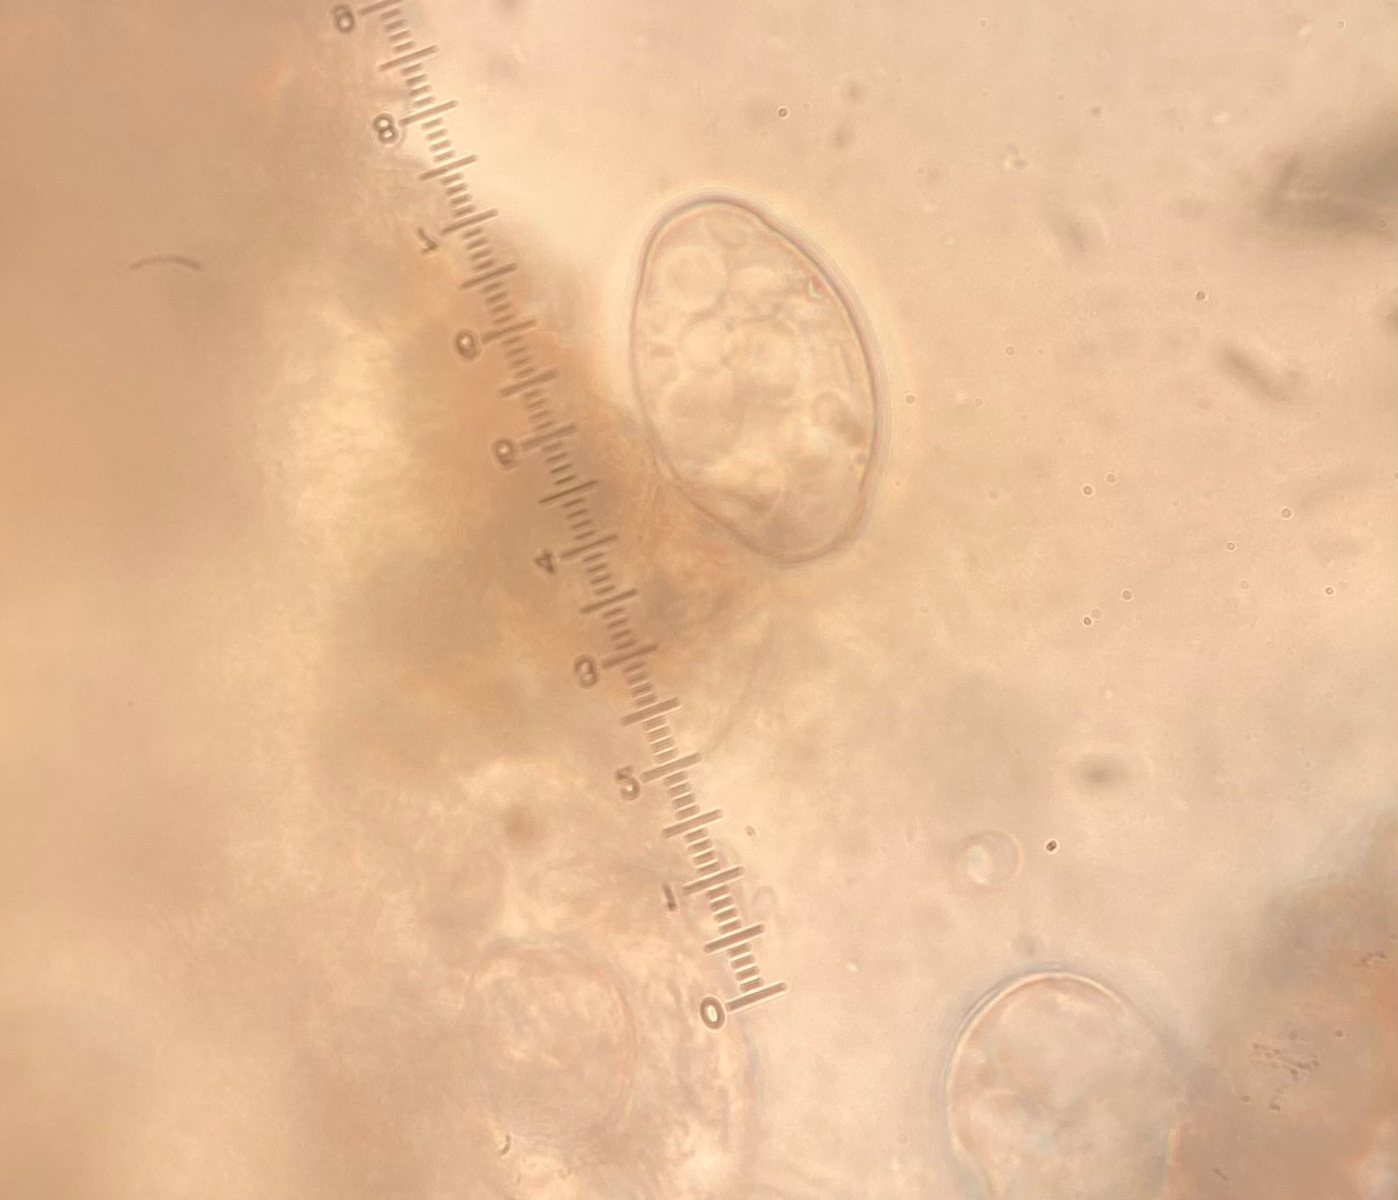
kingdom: Fungi
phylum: Ascomycota
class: Leotiomycetes
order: Helotiales
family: Erysiphaceae
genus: Podosphaera
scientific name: Podosphaera filipendulae
